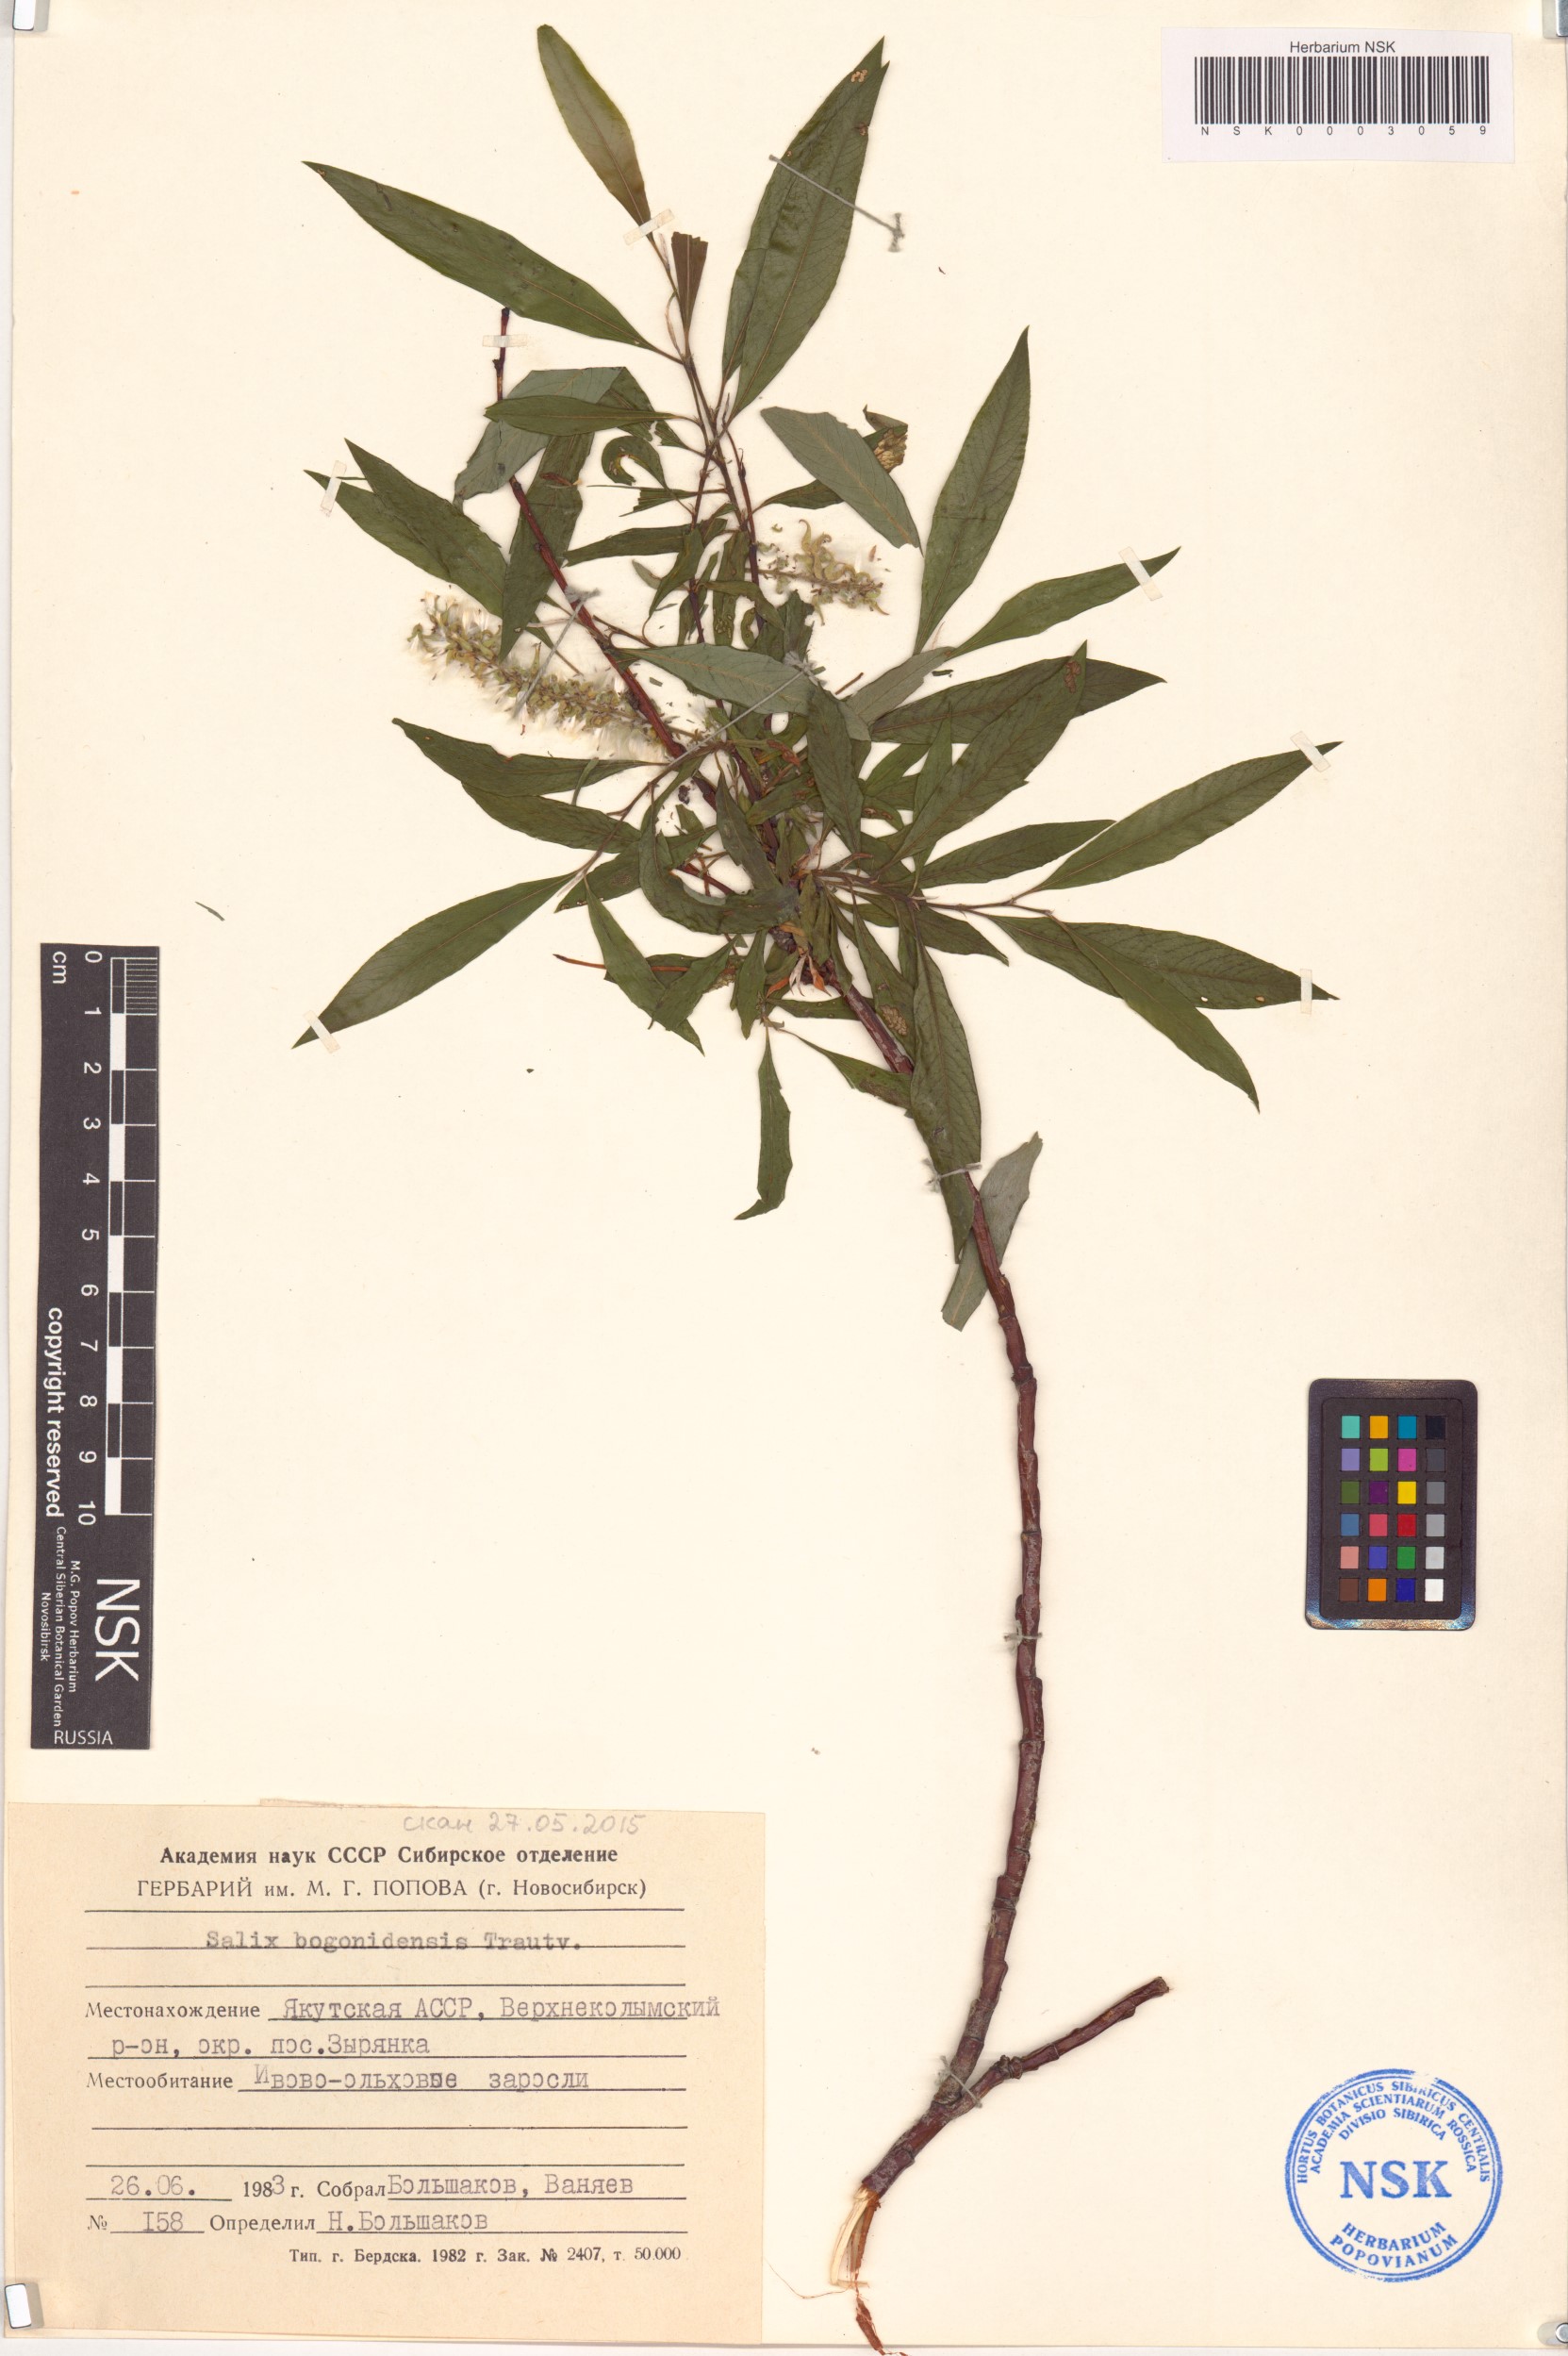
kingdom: Plantae
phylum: Tracheophyta
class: Magnoliopsida
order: Malpighiales
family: Salicaceae
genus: Salix
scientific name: Salix boganidensis
